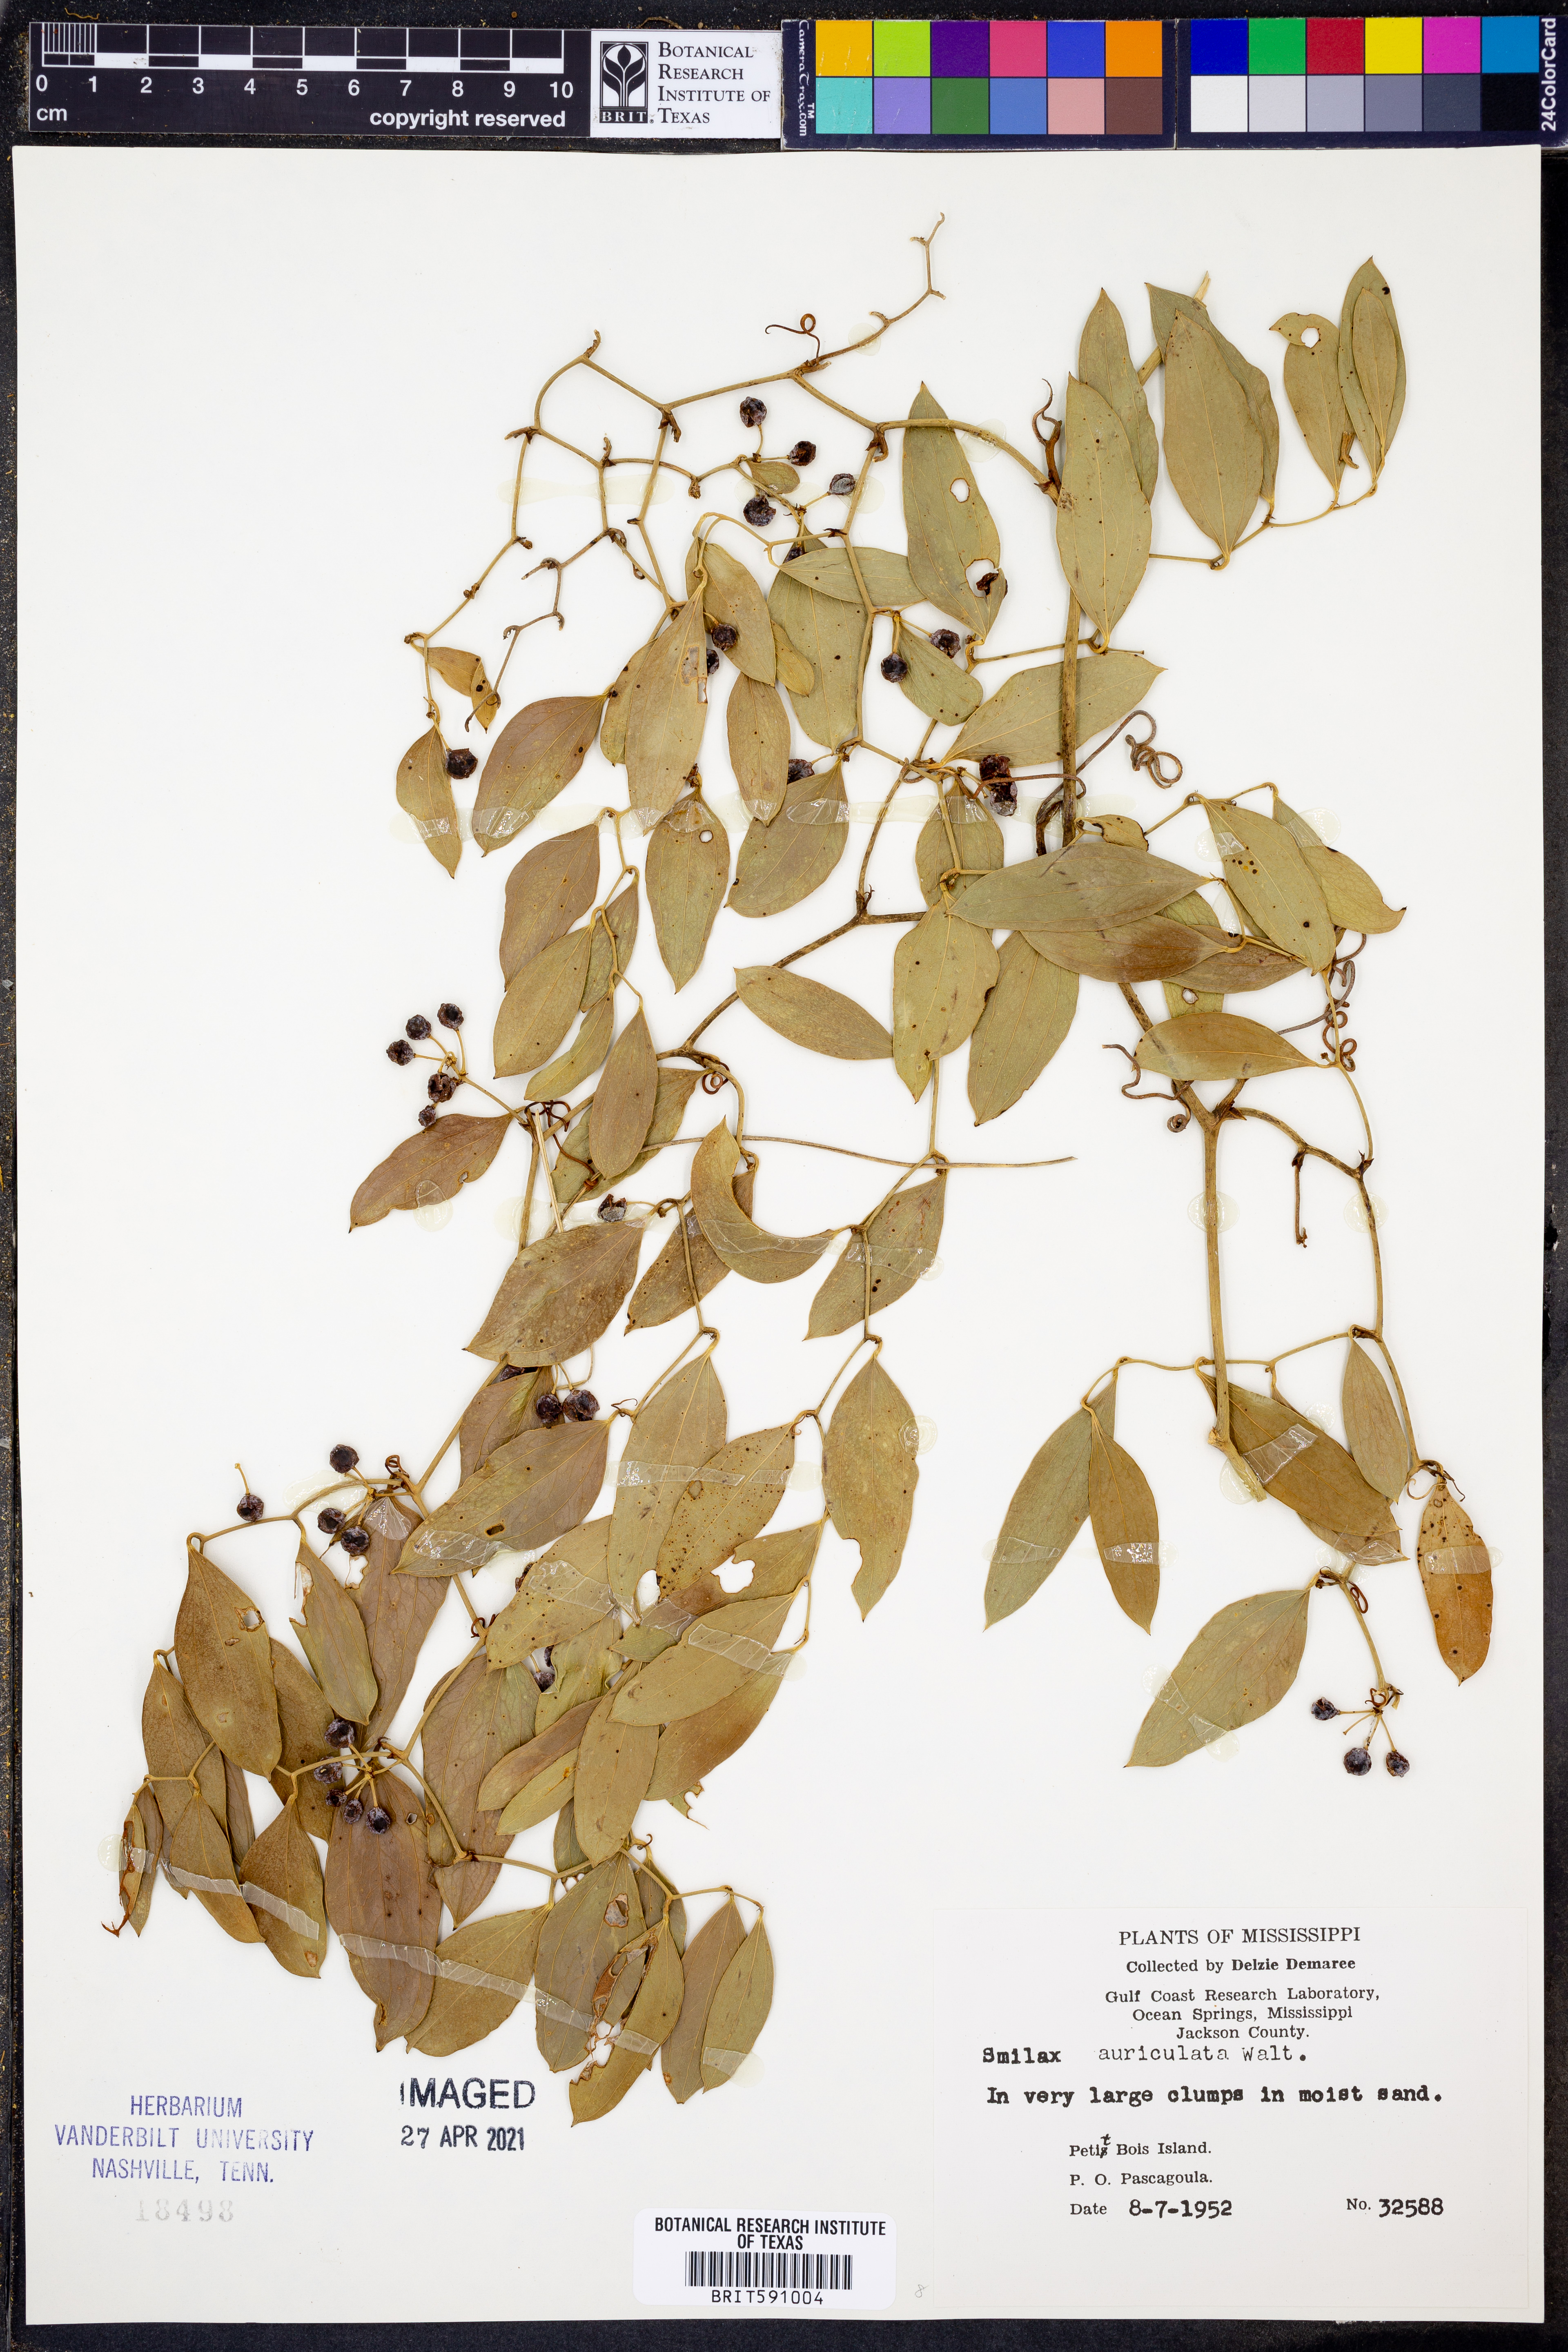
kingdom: Plantae
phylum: Tracheophyta
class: Liliopsida
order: Liliales
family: Smilacaceae
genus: Smilax
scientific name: Smilax auriculata
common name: Wild bamboo
